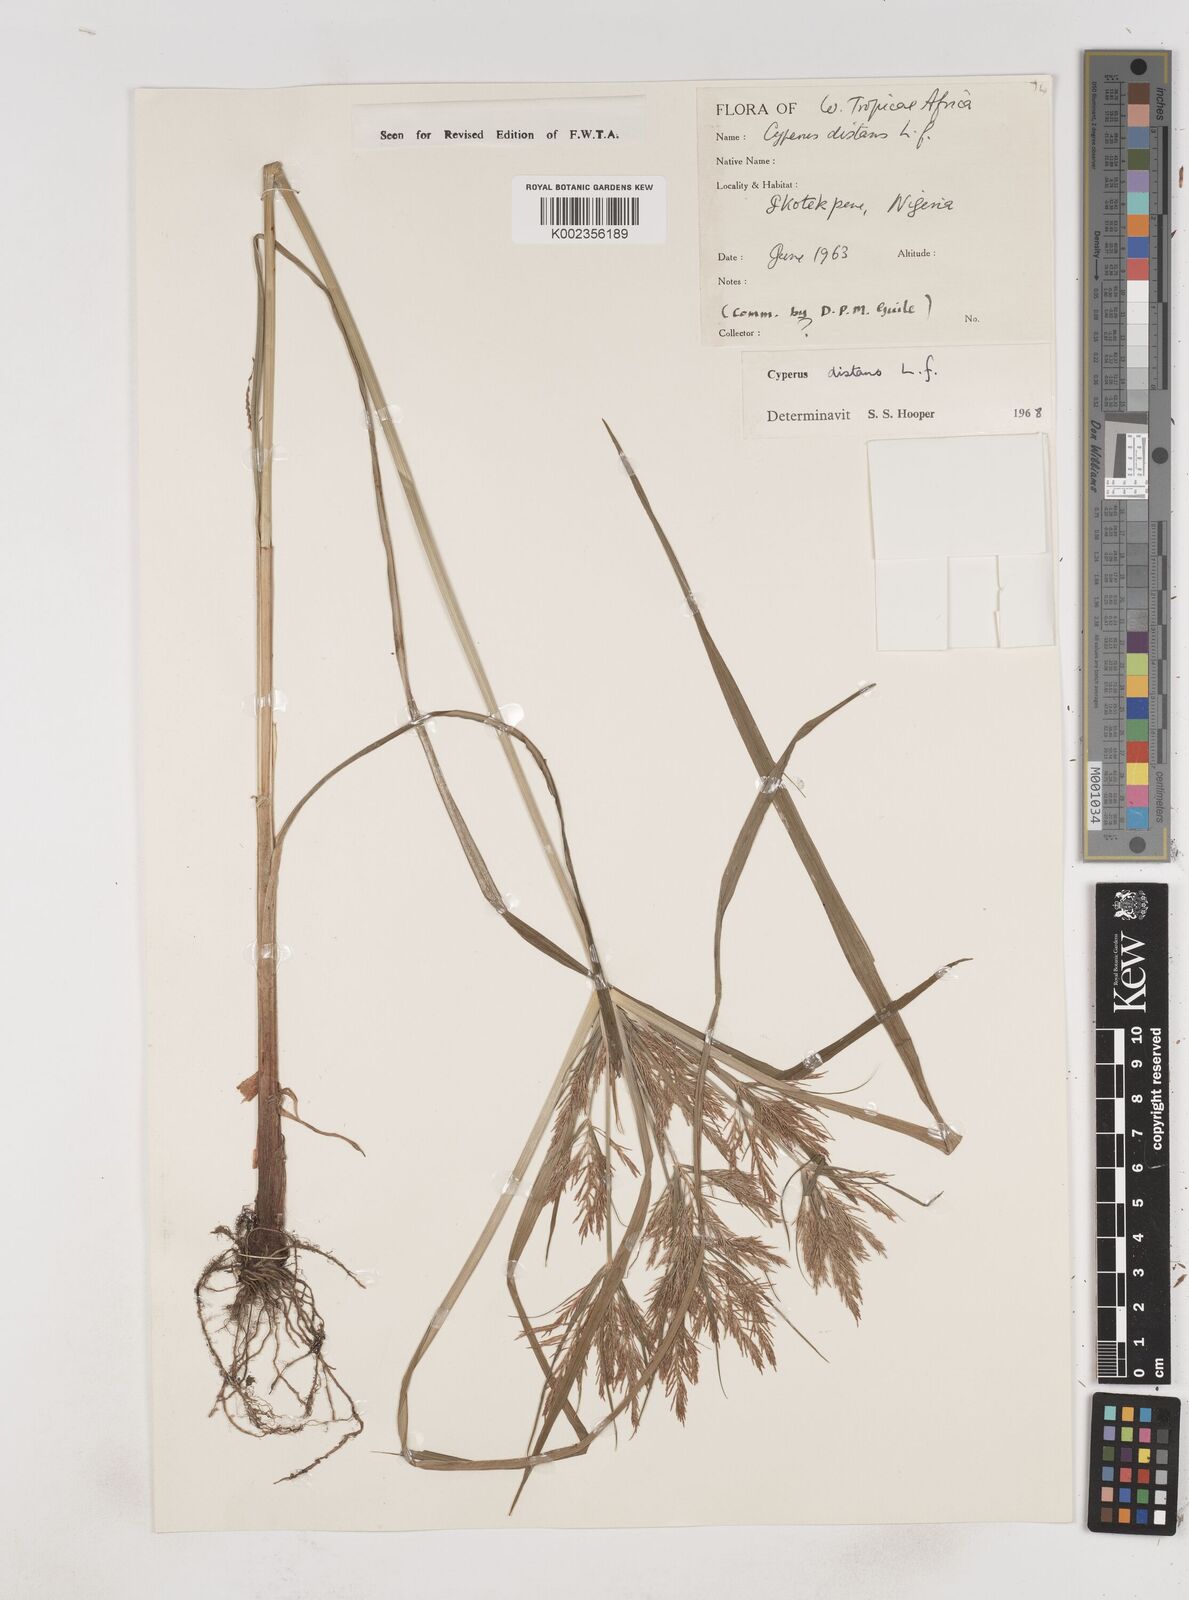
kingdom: Plantae
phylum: Tracheophyta
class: Liliopsida
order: Poales
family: Cyperaceae
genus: Cyperus
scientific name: Cyperus distans
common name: Slender cyperus
